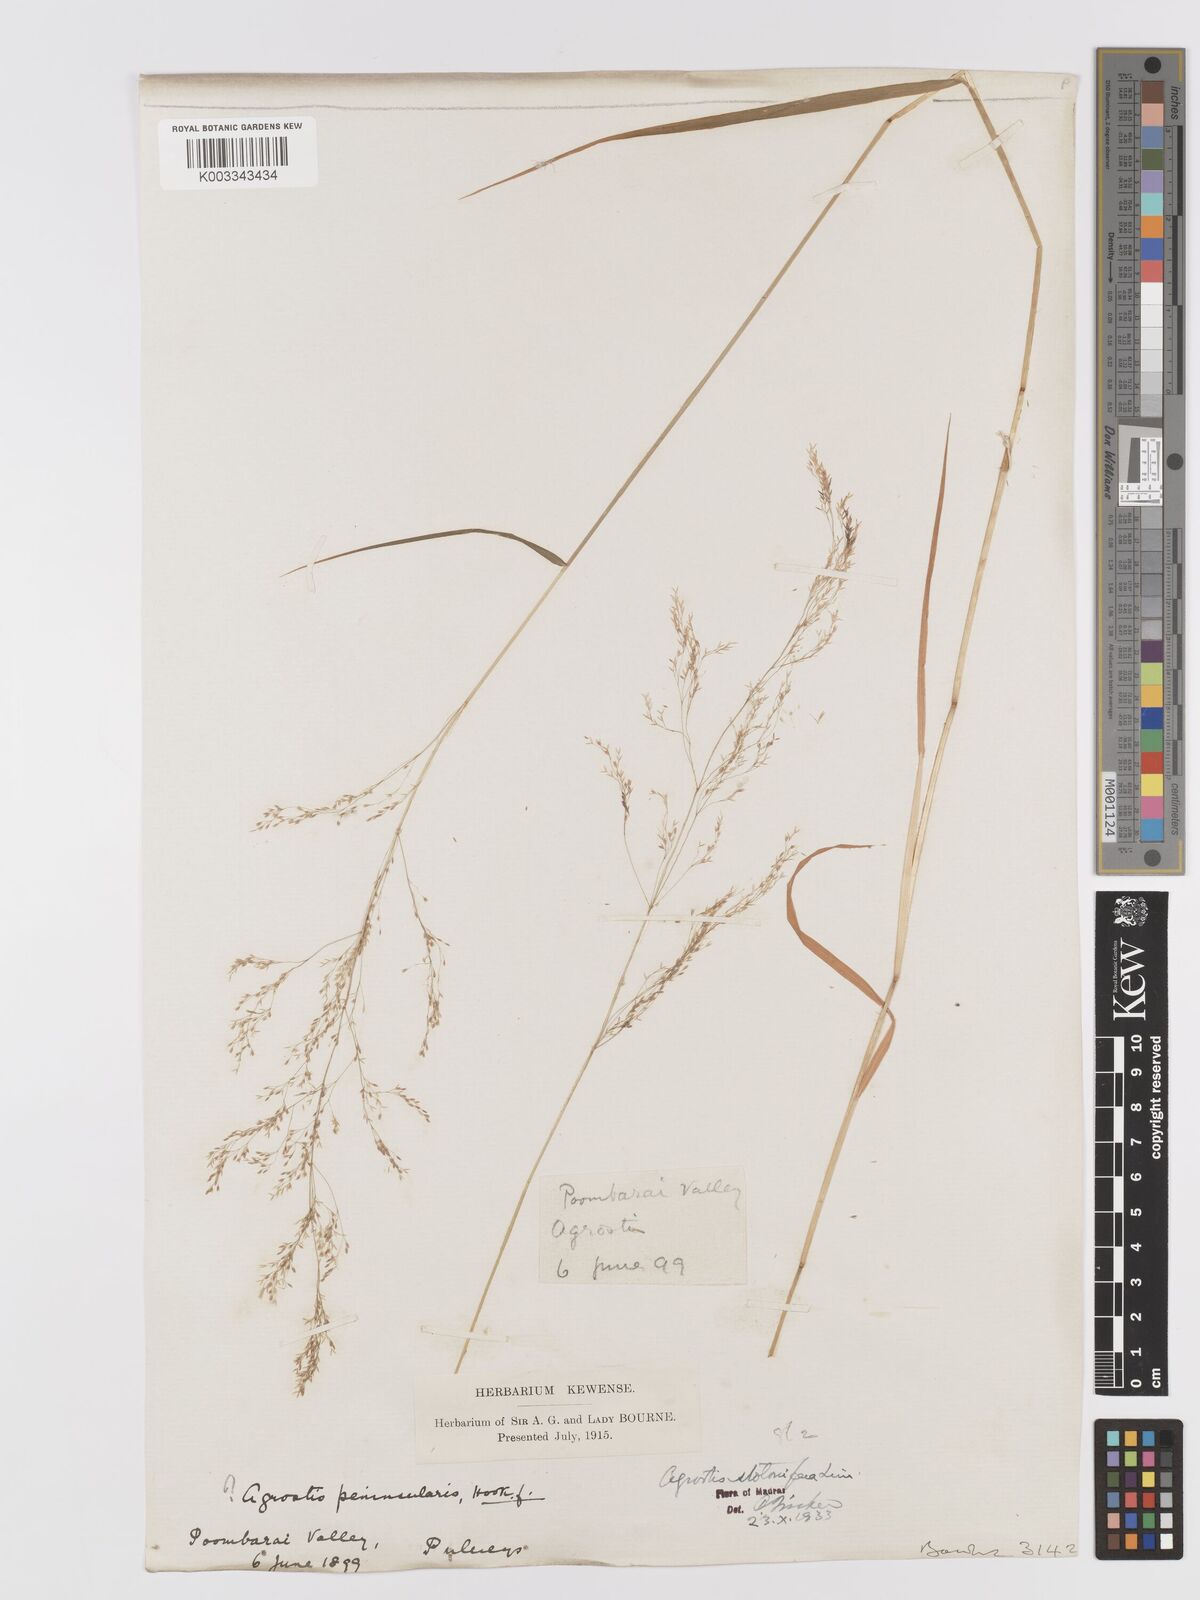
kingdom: Plantae
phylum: Tracheophyta
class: Liliopsida
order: Poales
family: Poaceae
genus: Agrostis
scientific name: Agrostis stolonifera
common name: Creeping bentgrass
